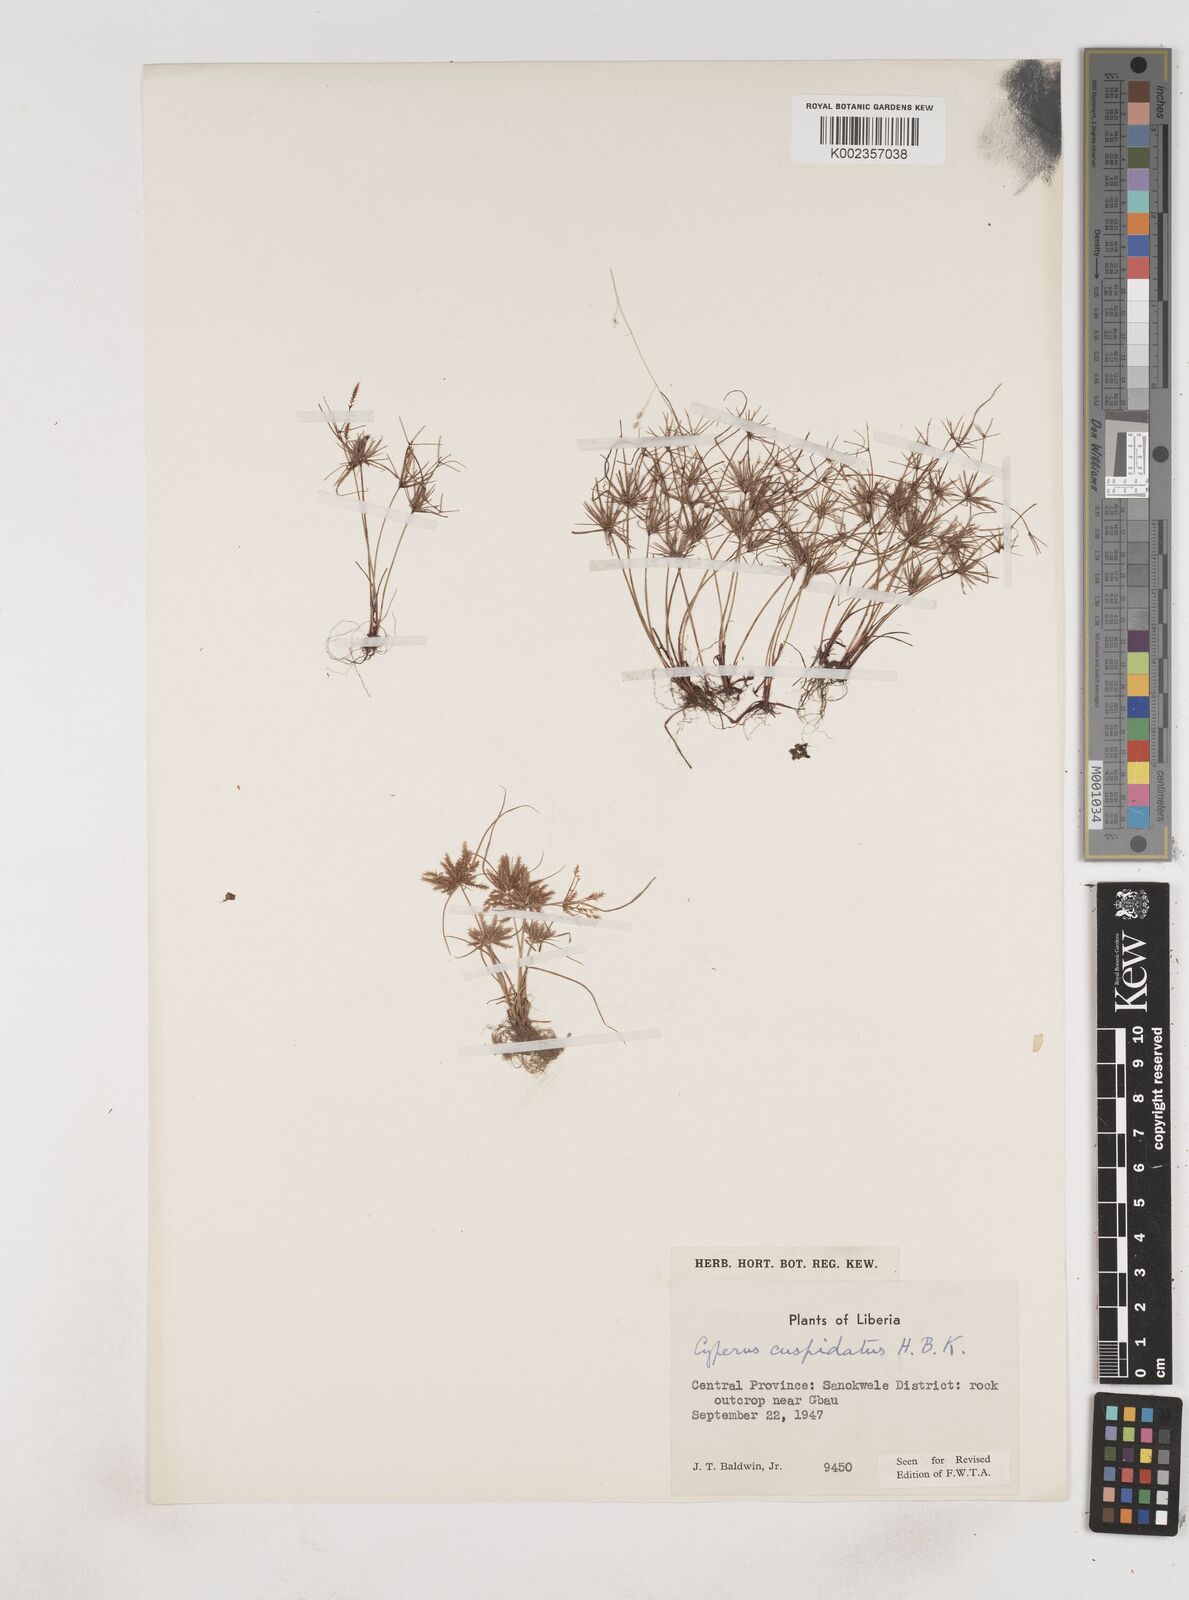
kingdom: Plantae
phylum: Tracheophyta
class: Liliopsida
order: Poales
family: Cyperaceae
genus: Cyperus
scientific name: Cyperus
